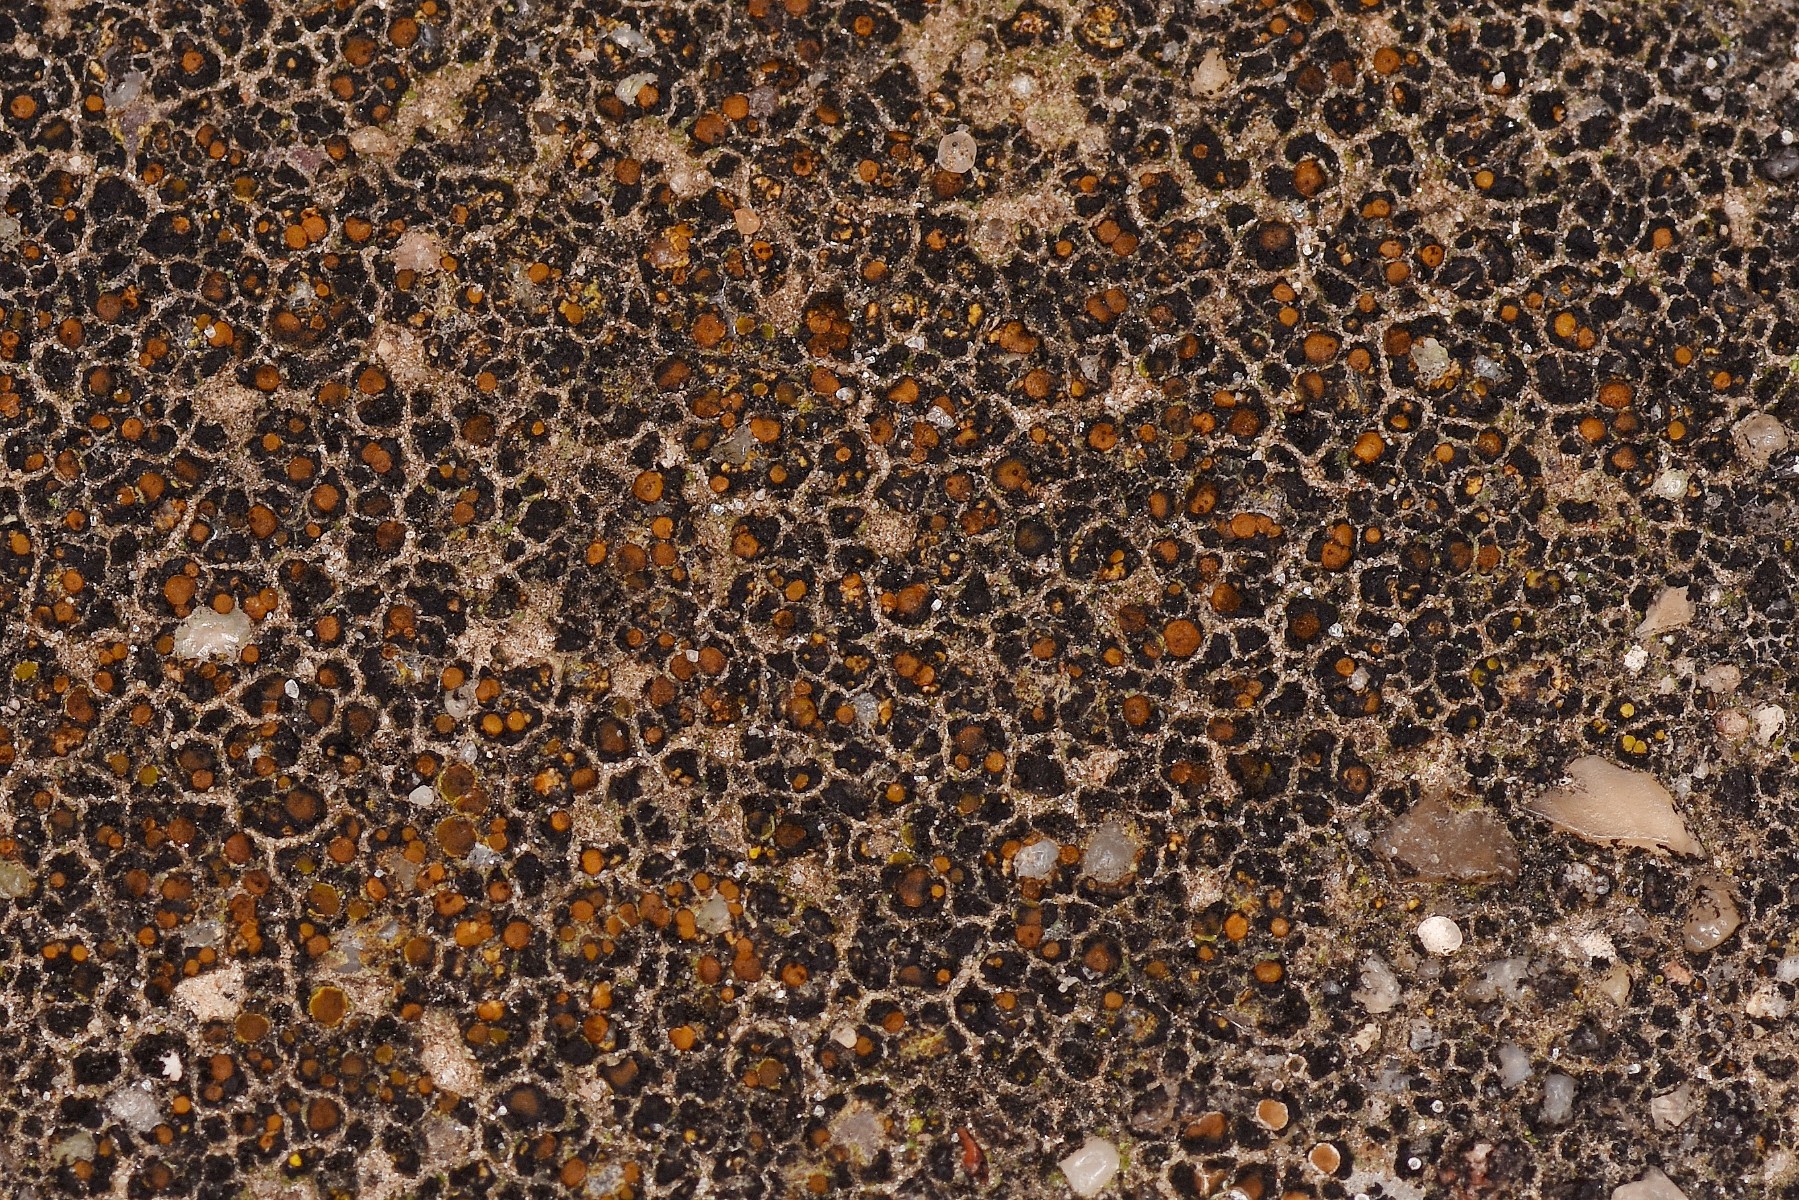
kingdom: Fungi
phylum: Ascomycota
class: Lecanoromycetes
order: Teloschistales
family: Teloschistaceae
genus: Athallia
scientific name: Athallia holocarpa
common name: liden orangelav
